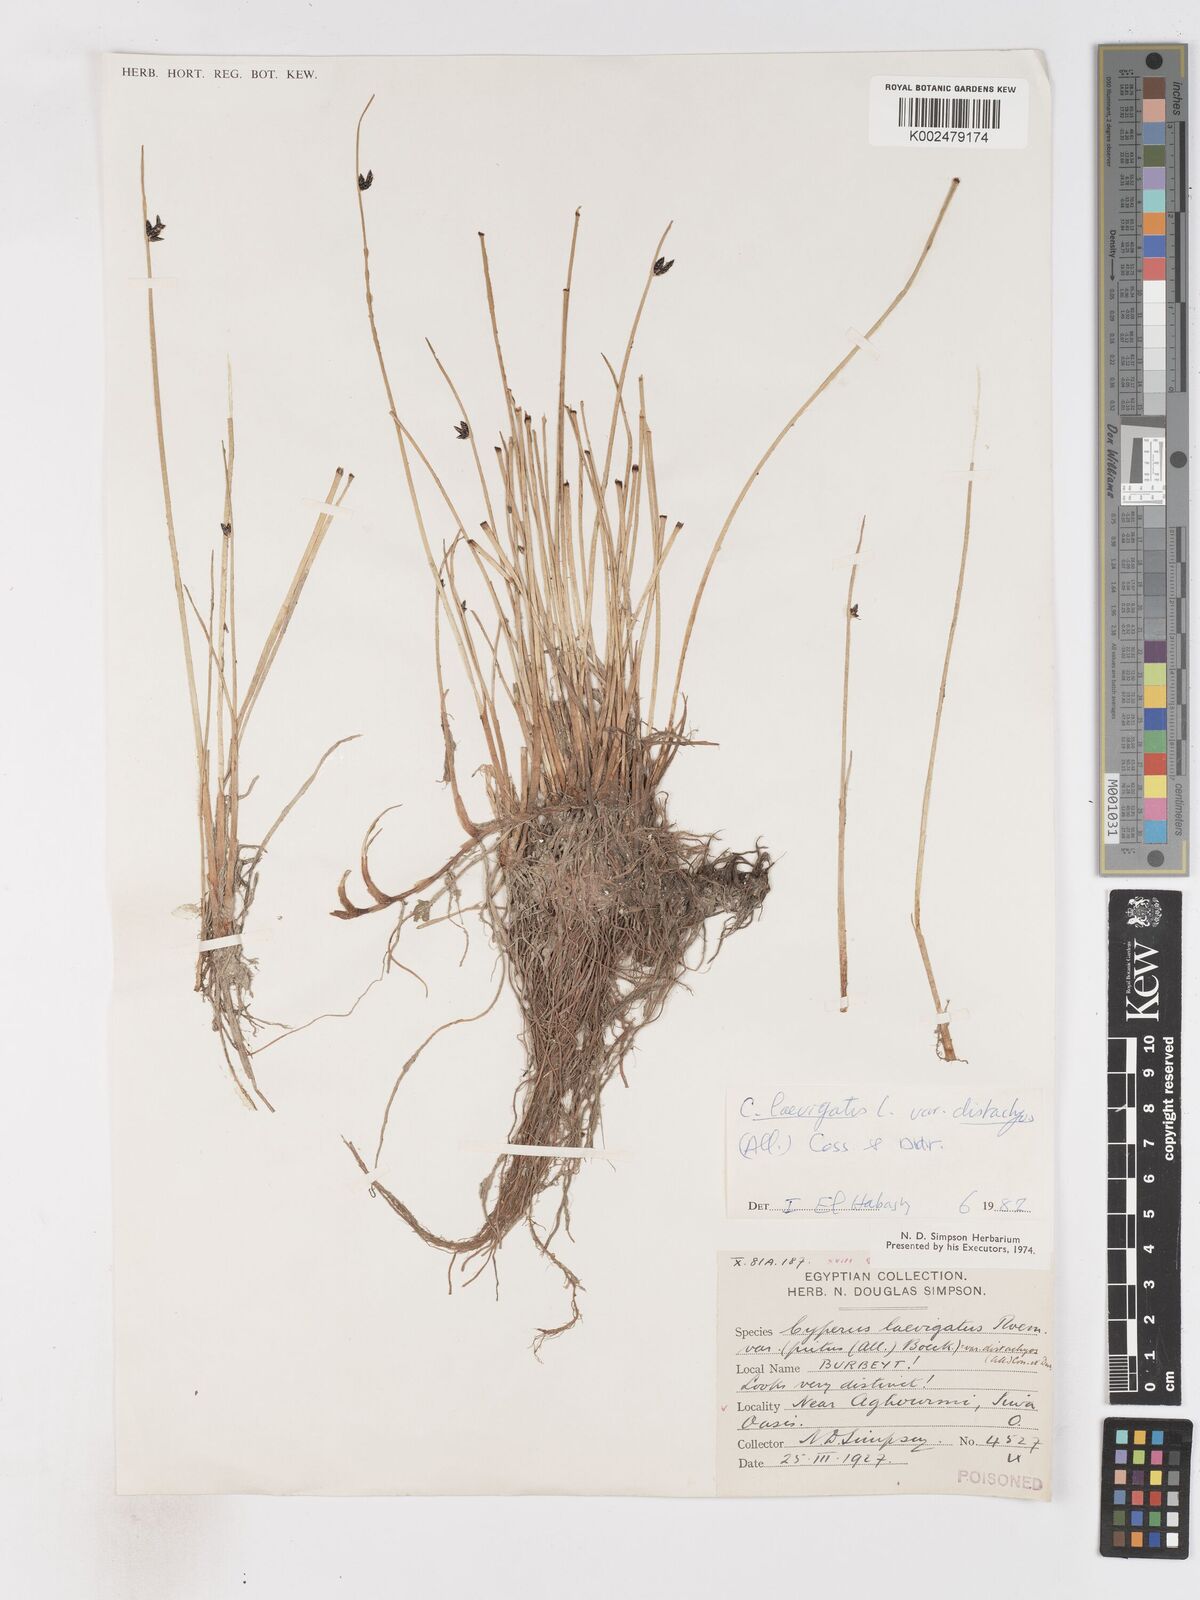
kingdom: Plantae
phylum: Tracheophyta
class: Liliopsida
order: Poales
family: Cyperaceae
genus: Cyperus
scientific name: Cyperus laevigatus
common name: Smooth flat sedge
